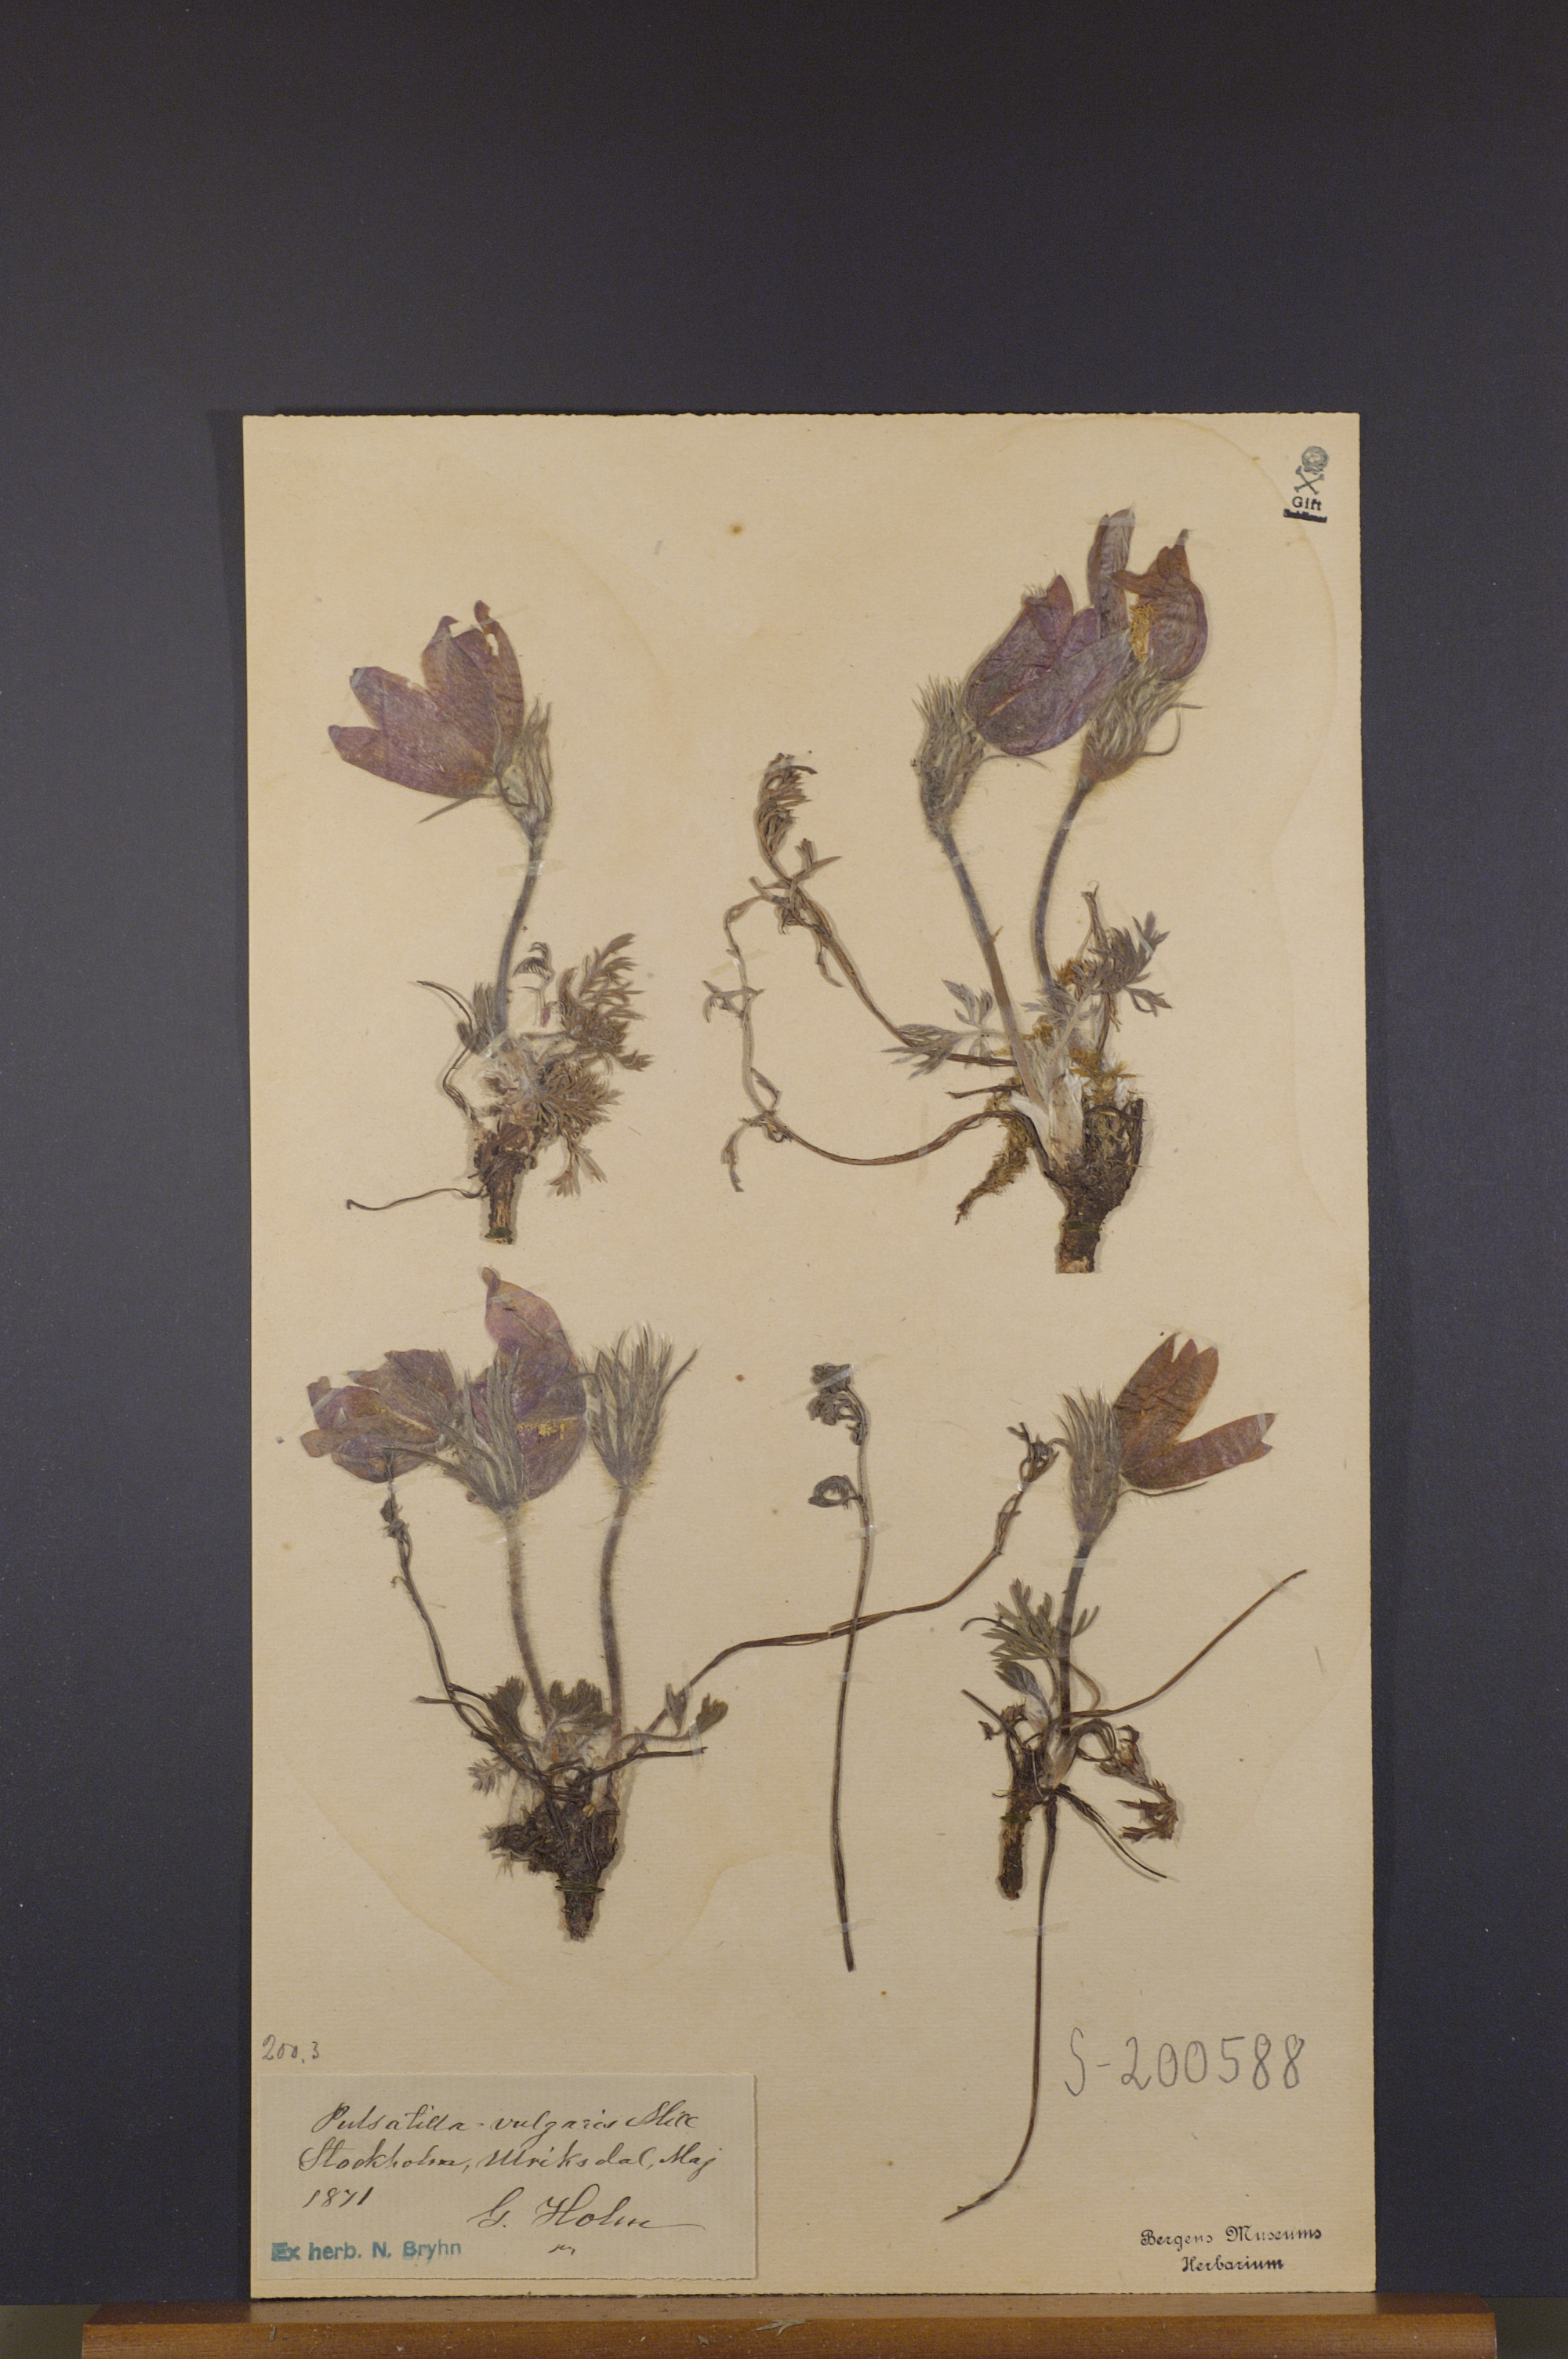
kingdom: Plantae
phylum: Tracheophyta
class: Magnoliopsida
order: Ranunculales
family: Ranunculaceae
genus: Pulsatilla
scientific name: Pulsatilla vulgaris
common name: Pasqueflower
